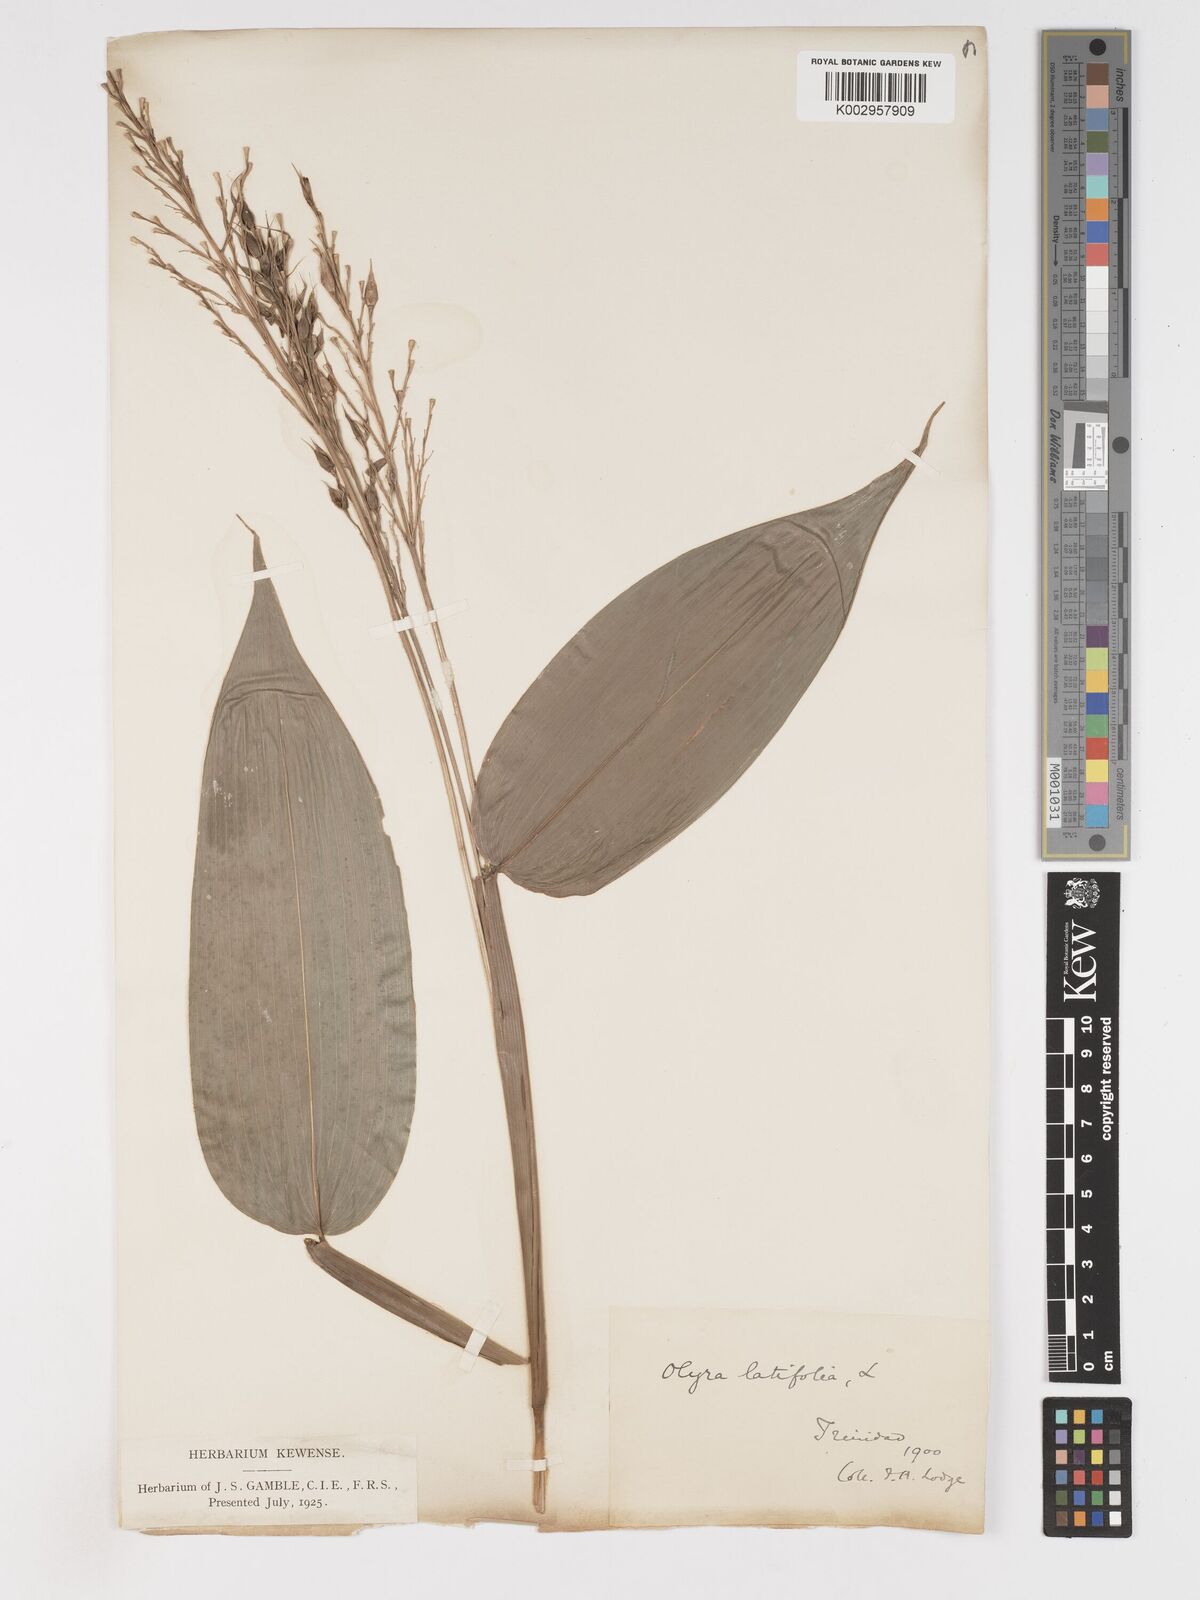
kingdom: Plantae
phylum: Tracheophyta
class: Liliopsida
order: Poales
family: Poaceae
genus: Olyra
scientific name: Olyra latifolia
